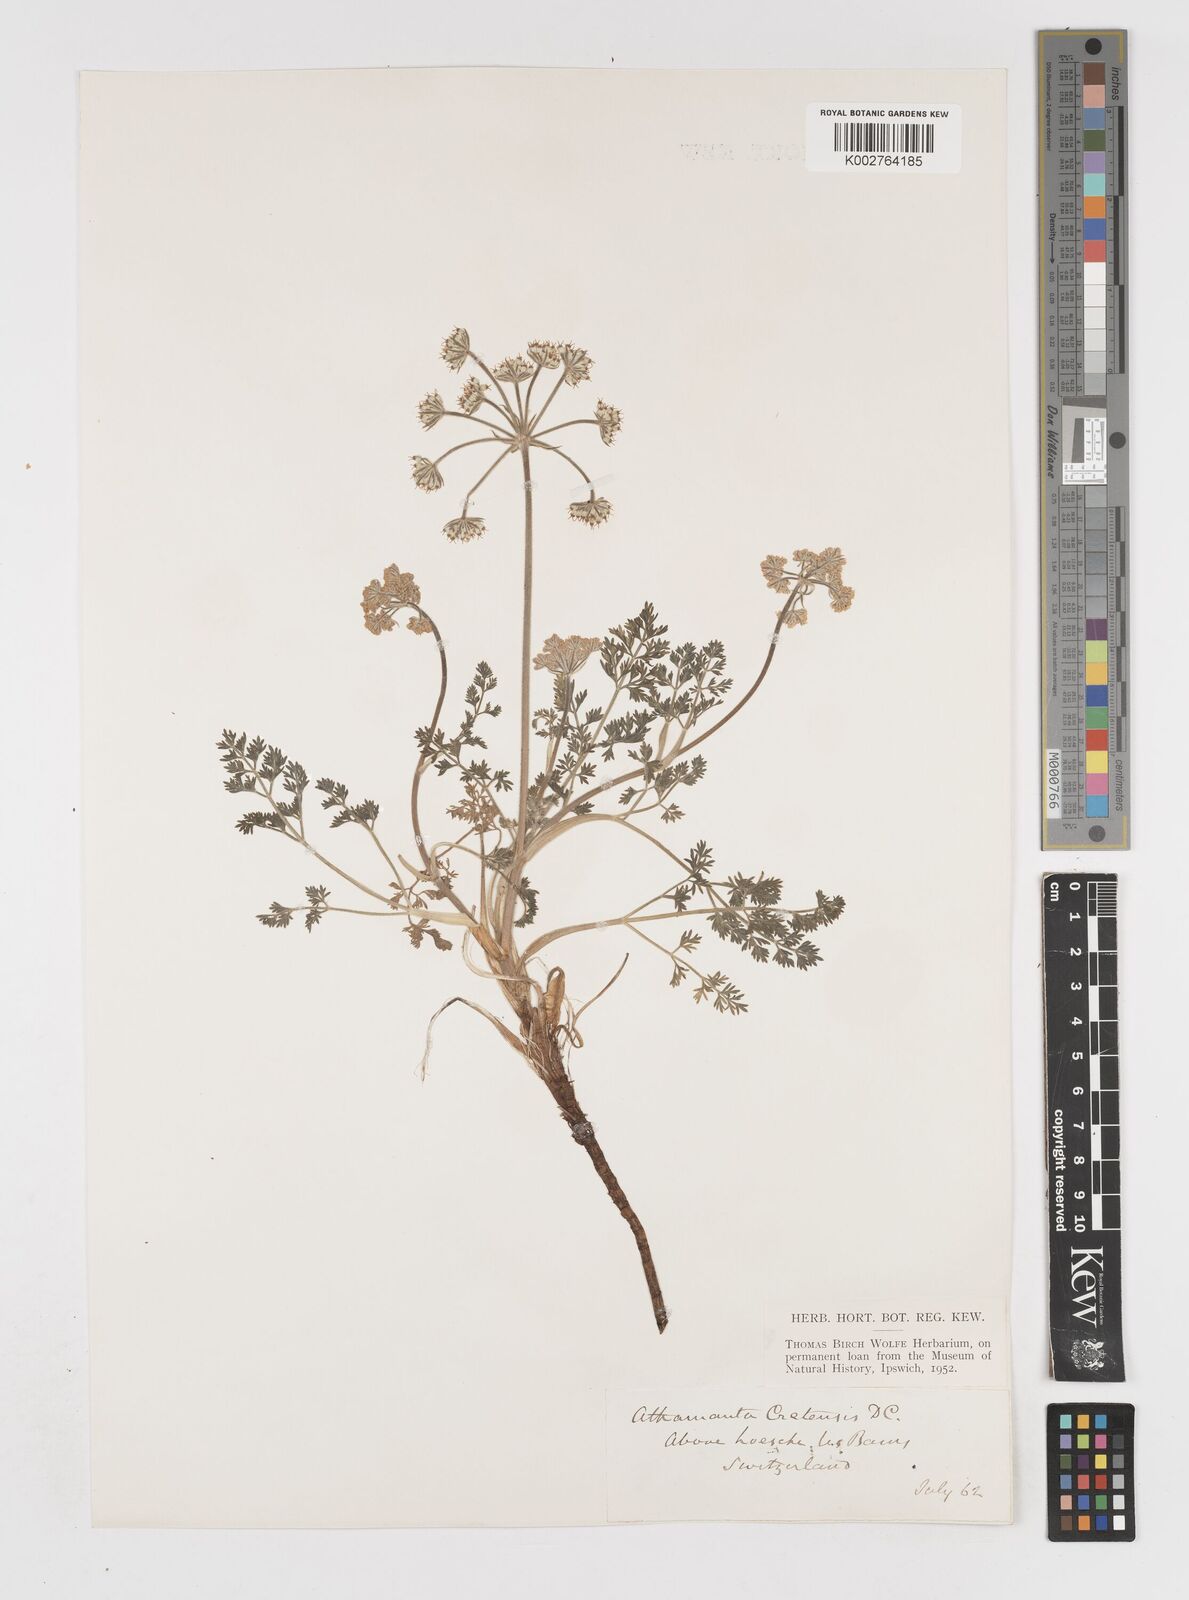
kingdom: Plantae
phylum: Tracheophyta
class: Magnoliopsida
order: Apiales
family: Apiaceae
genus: Athamanta
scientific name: Athamanta cretensis
